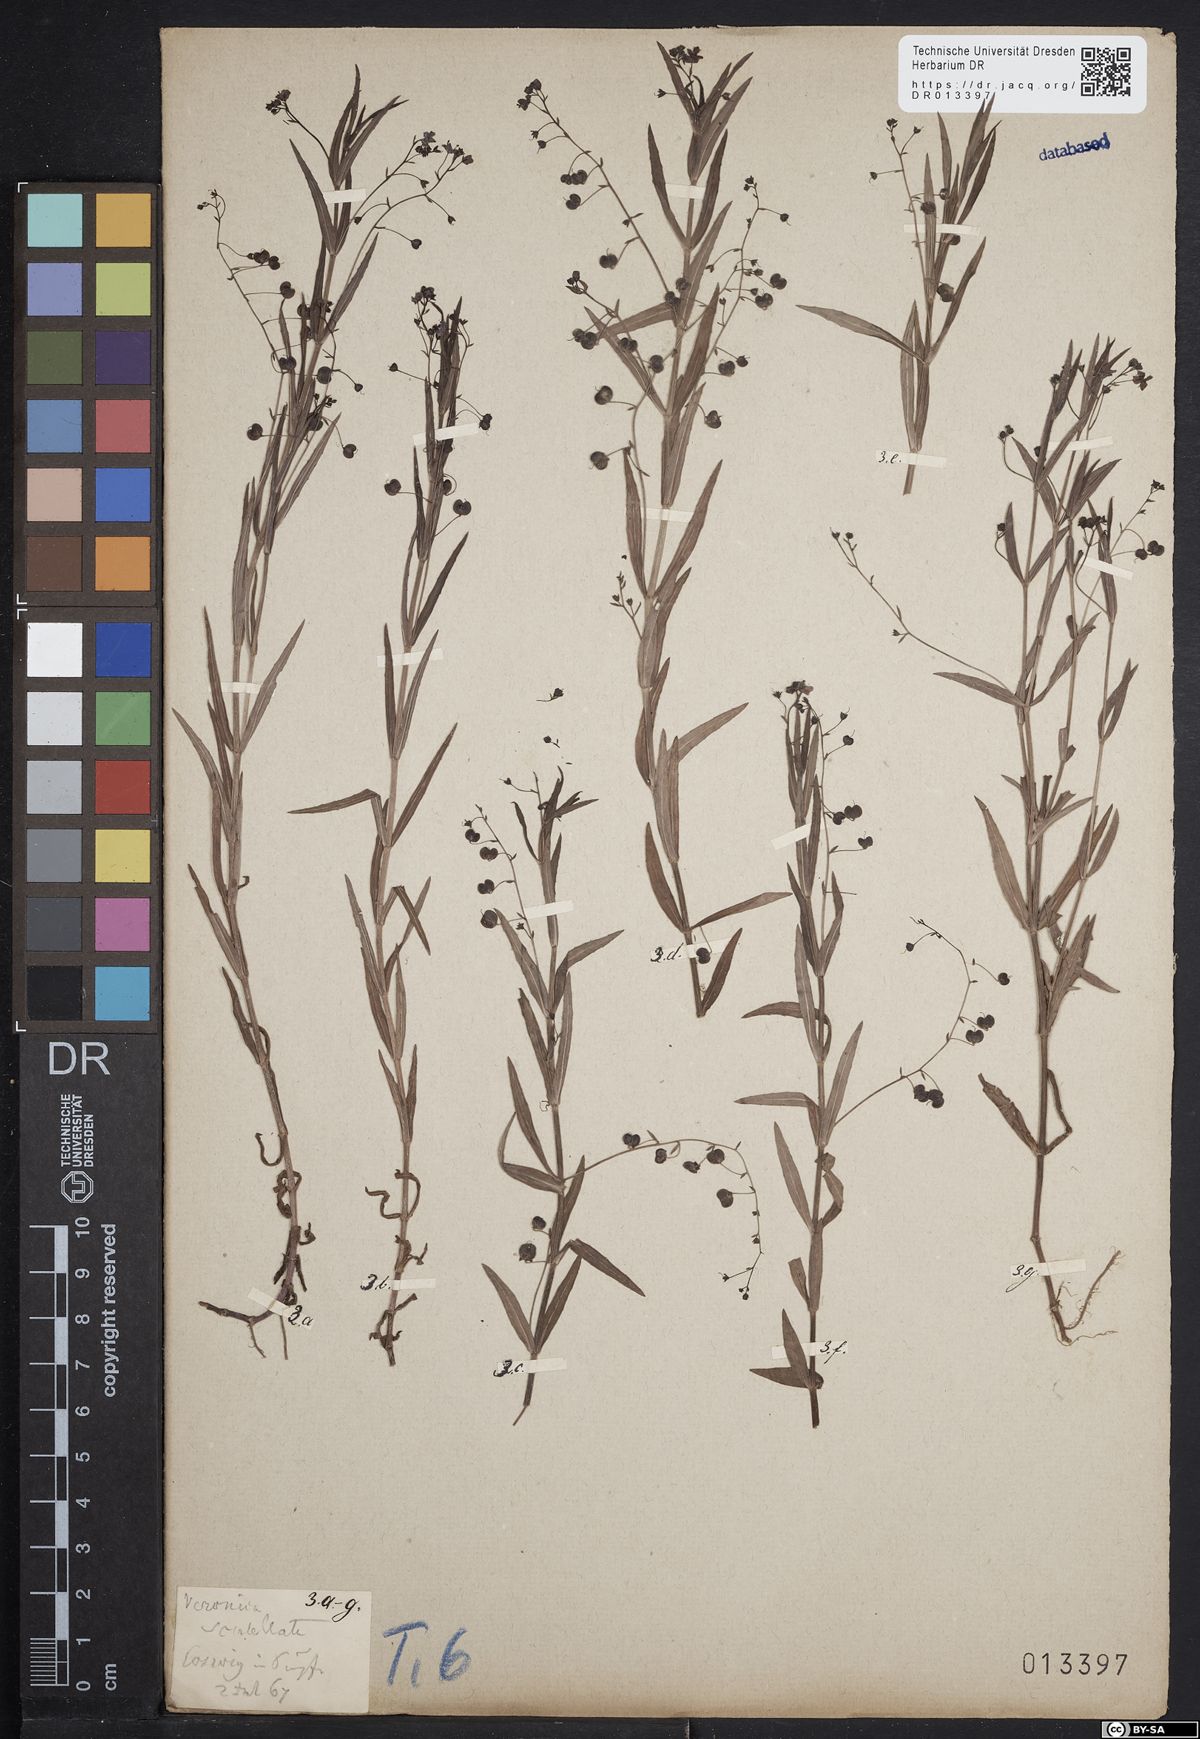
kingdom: Plantae
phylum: Tracheophyta
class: Magnoliopsida
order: Lamiales
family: Plantaginaceae
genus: Veronica
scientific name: Veronica scutellata
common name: Marsh speedwell
